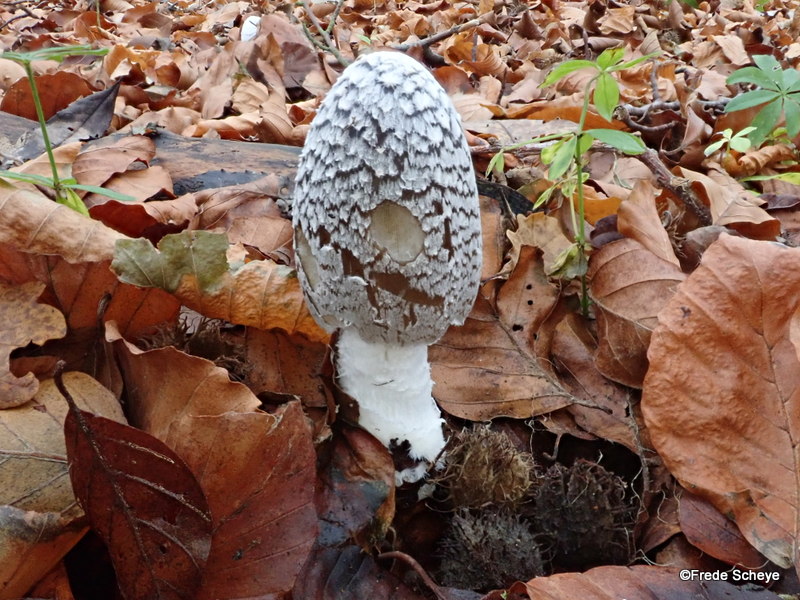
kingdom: Fungi
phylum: Basidiomycota
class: Agaricomycetes
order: Agaricales
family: Psathyrellaceae
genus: Coprinopsis
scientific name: Coprinopsis picacea
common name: skade-blækhat
